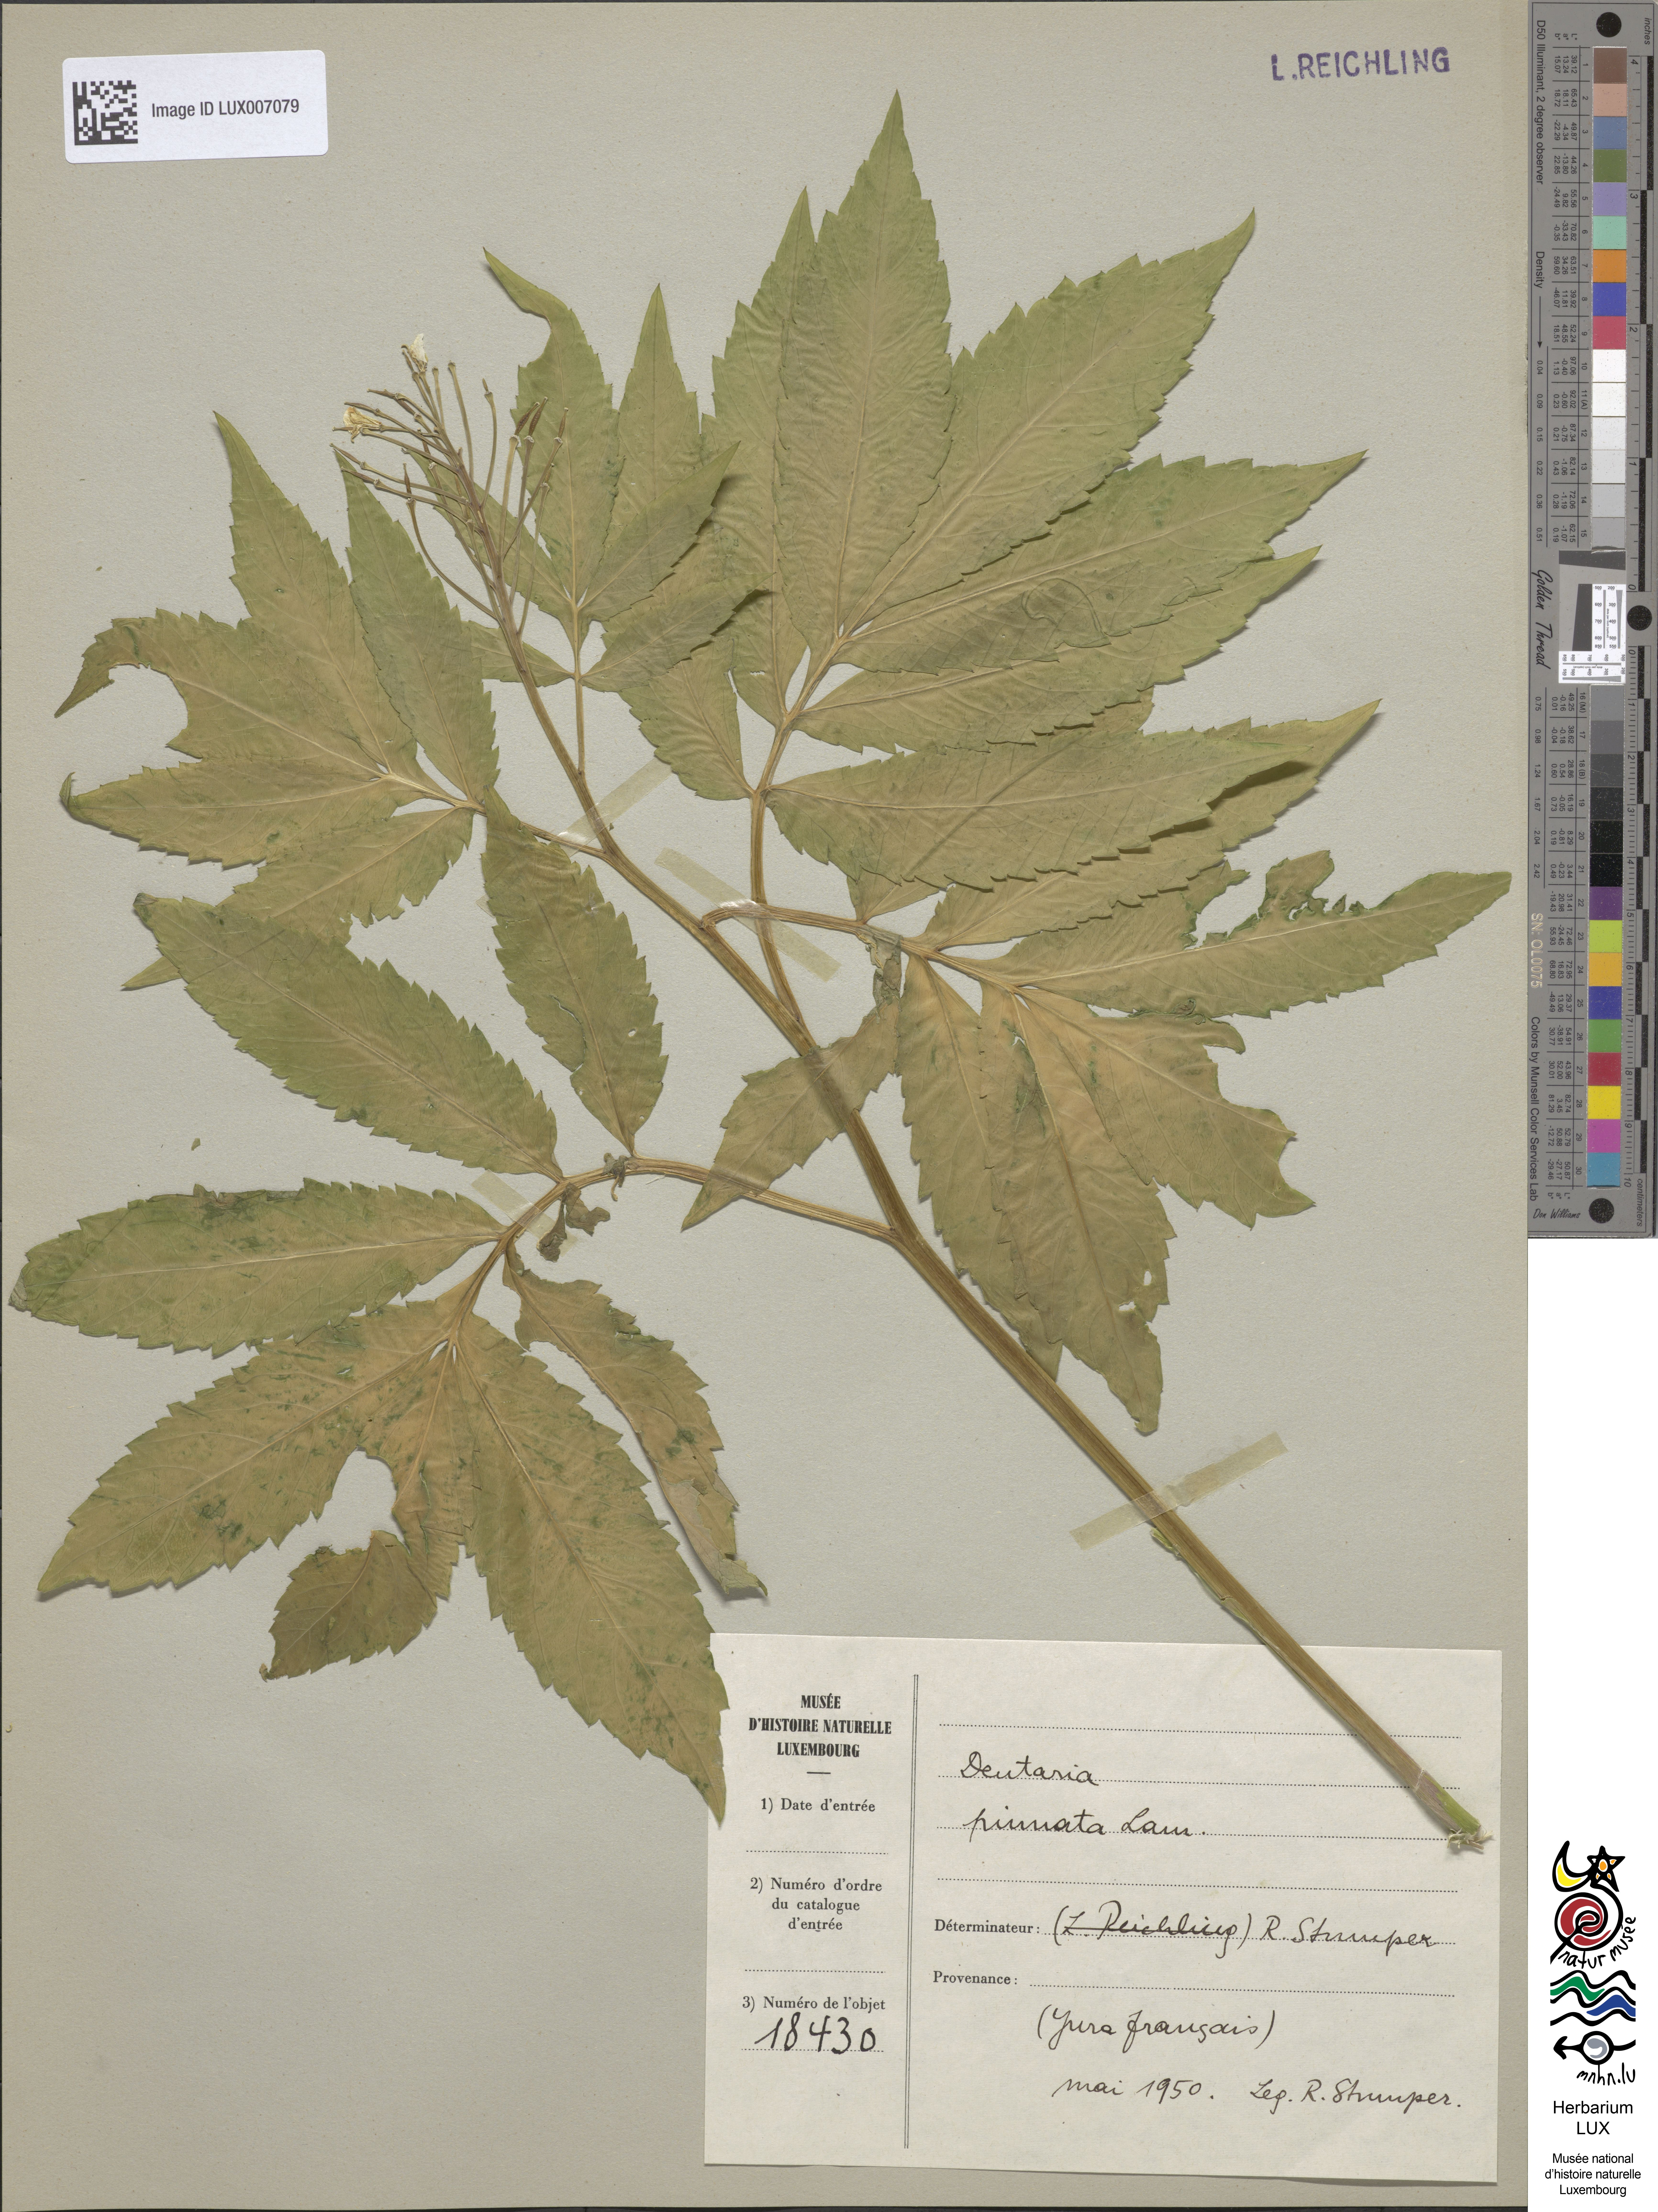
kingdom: Plantae
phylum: Tracheophyta
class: Magnoliopsida
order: Brassicales
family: Brassicaceae
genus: Cardamine
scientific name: Cardamine heptaphylla
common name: Pinnate coralroot
